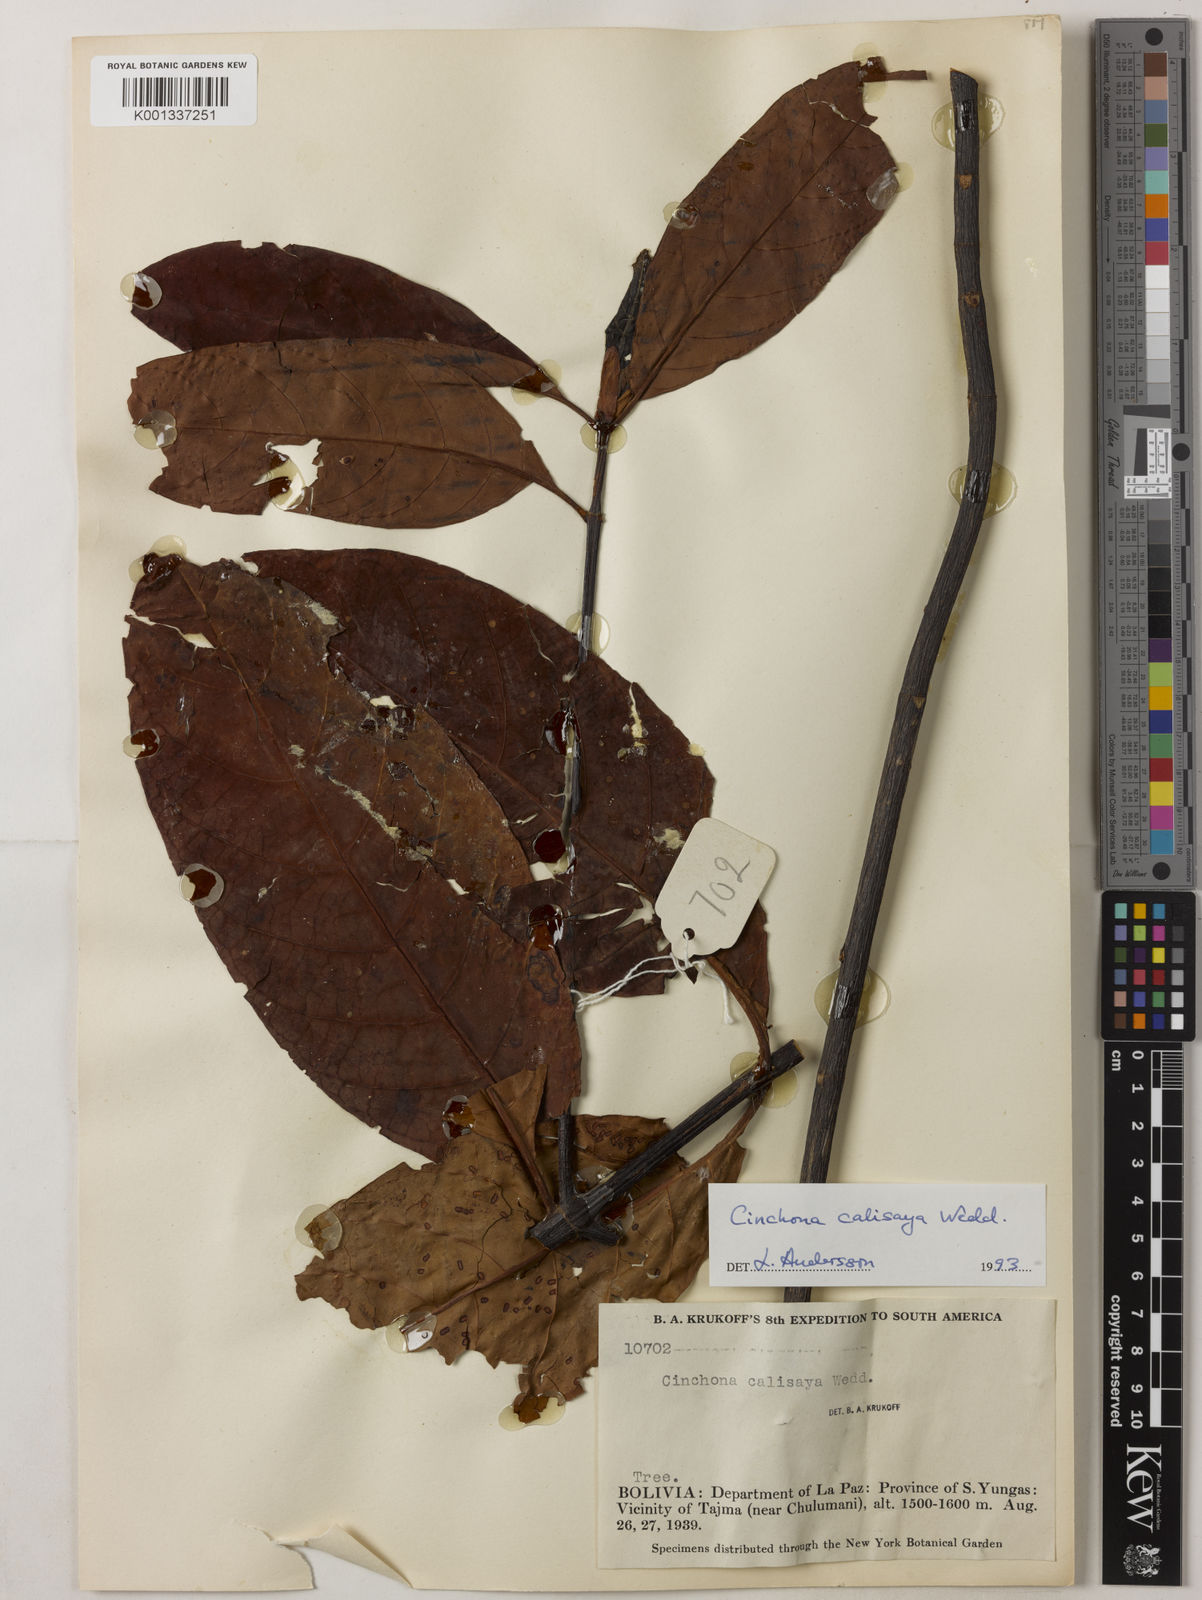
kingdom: Plantae
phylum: Tracheophyta
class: Magnoliopsida
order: Gentianales
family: Rubiaceae
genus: Cinchona
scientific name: Cinchona calisaya
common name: Ledgerbark
